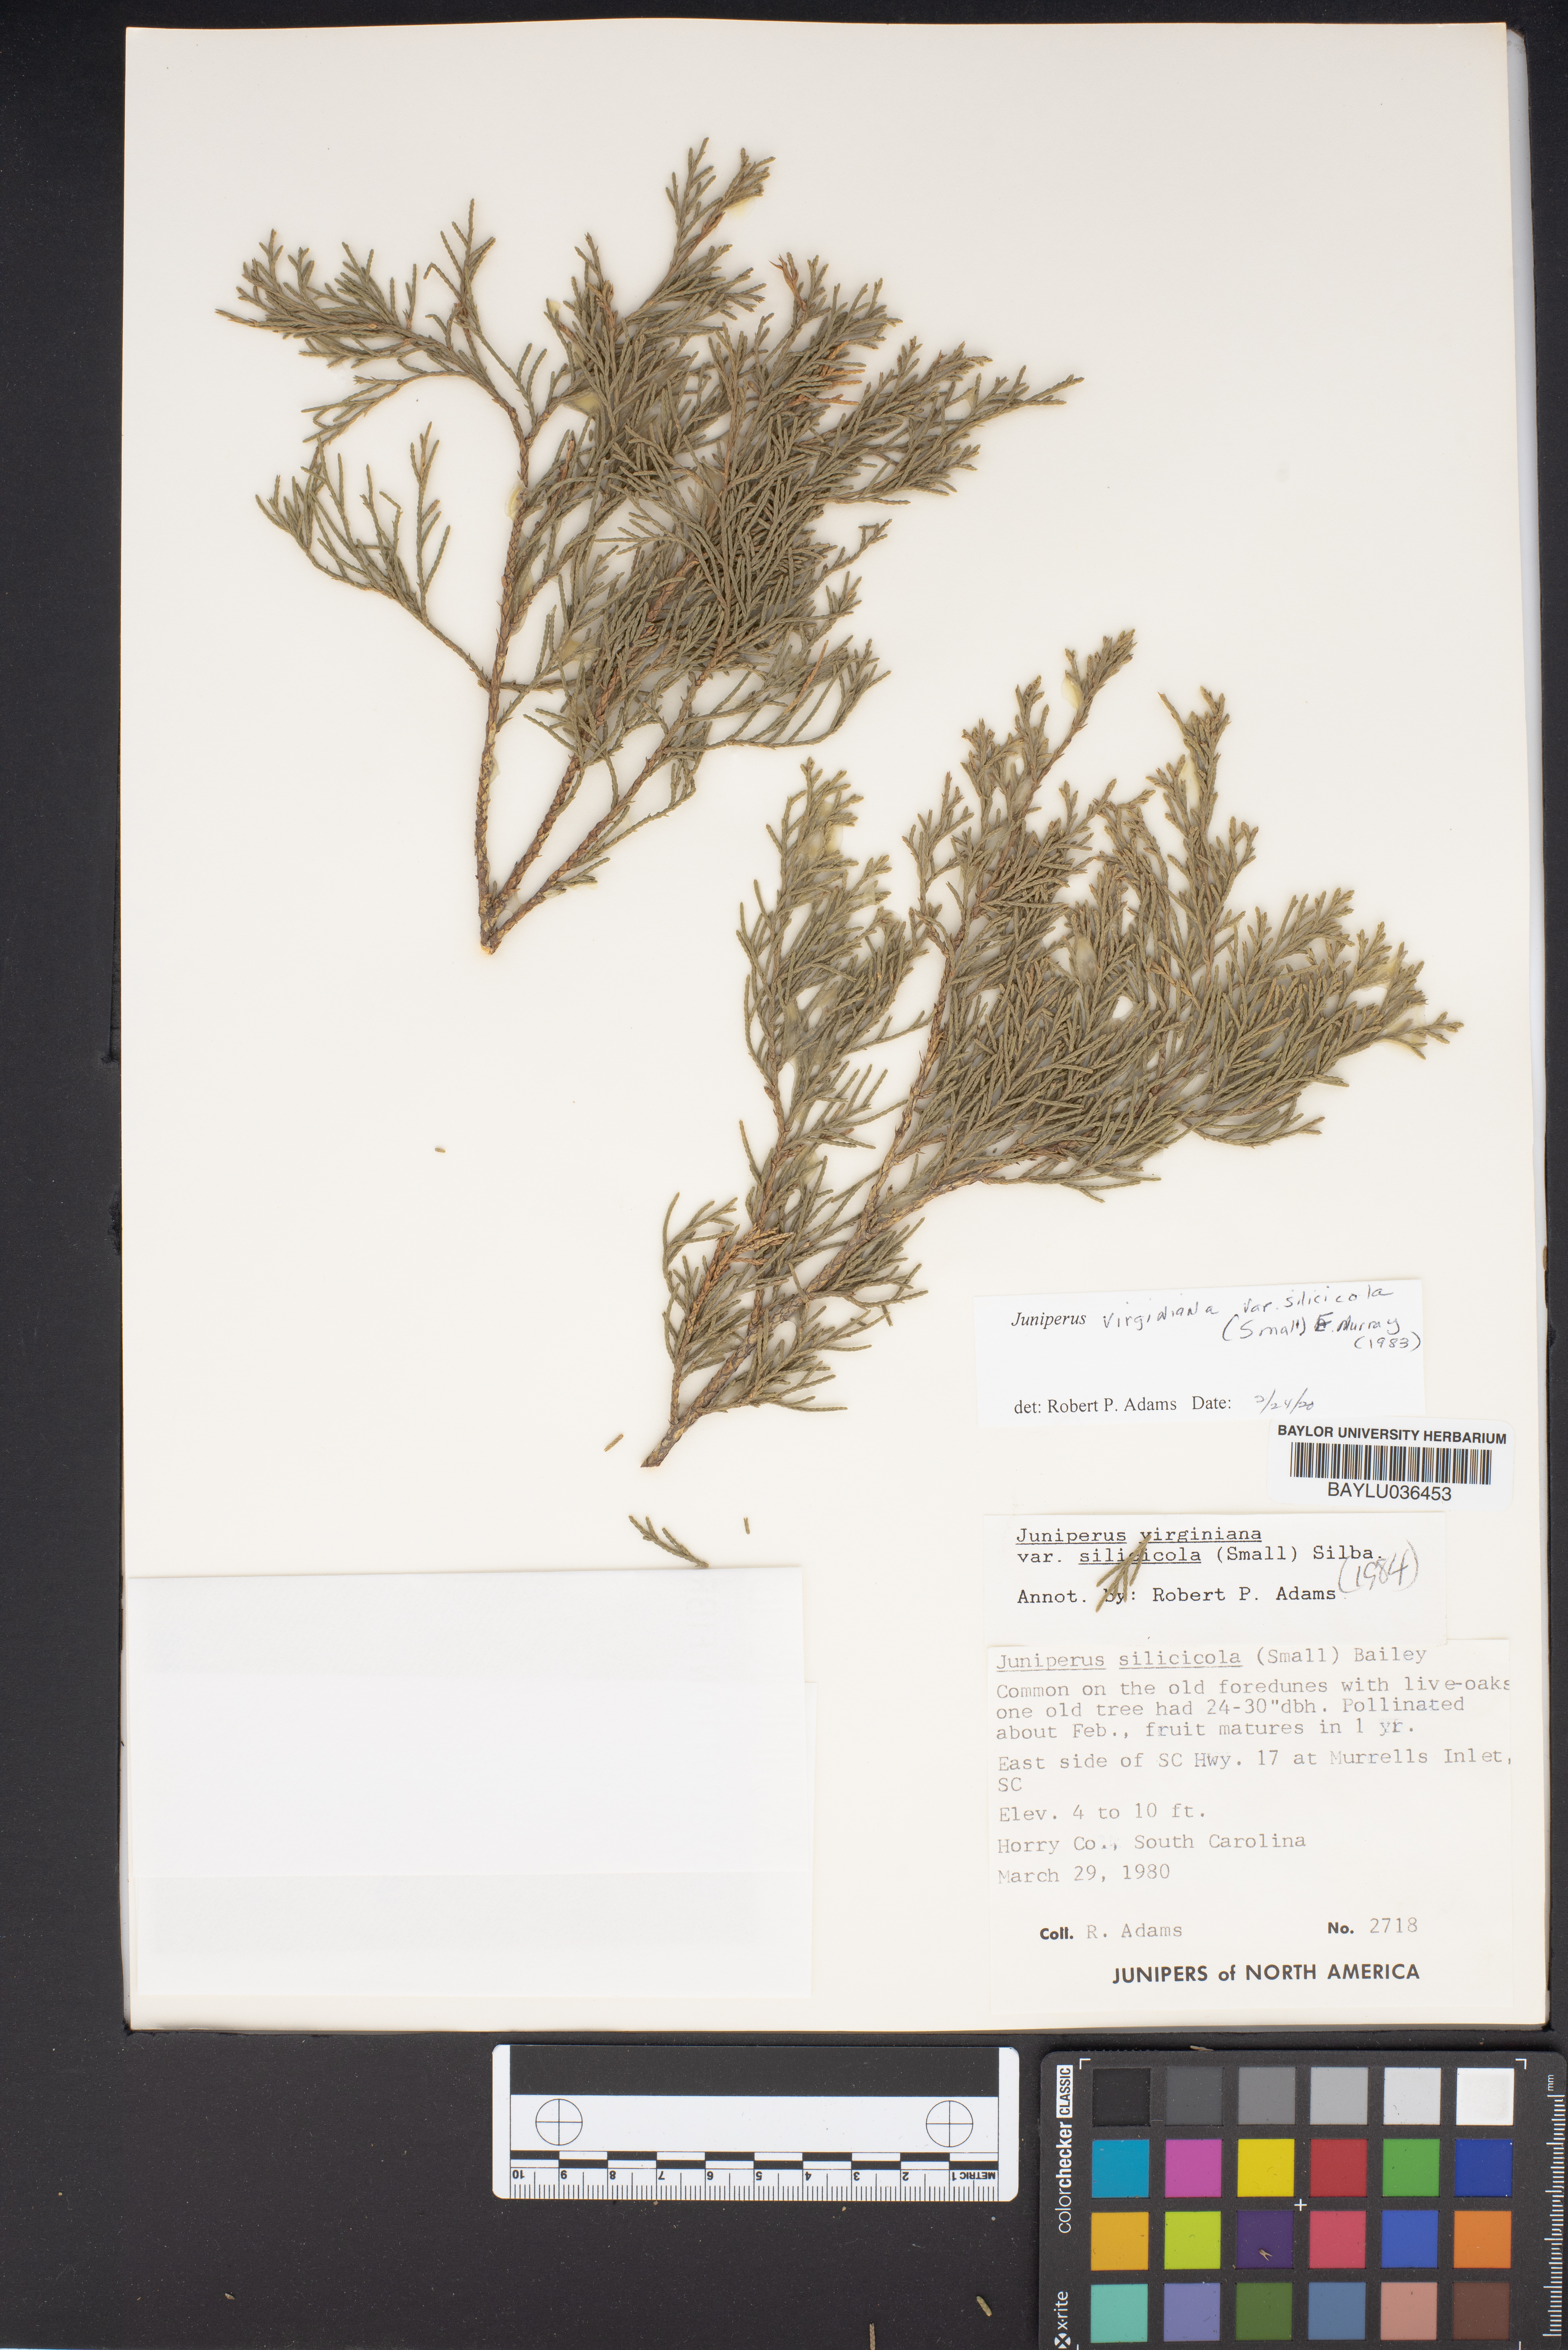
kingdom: Plantae
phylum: Tracheophyta
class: Pinopsida
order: Pinales
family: Cupressaceae
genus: Juniperus
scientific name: Juniperus virginiana
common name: Red juniper
